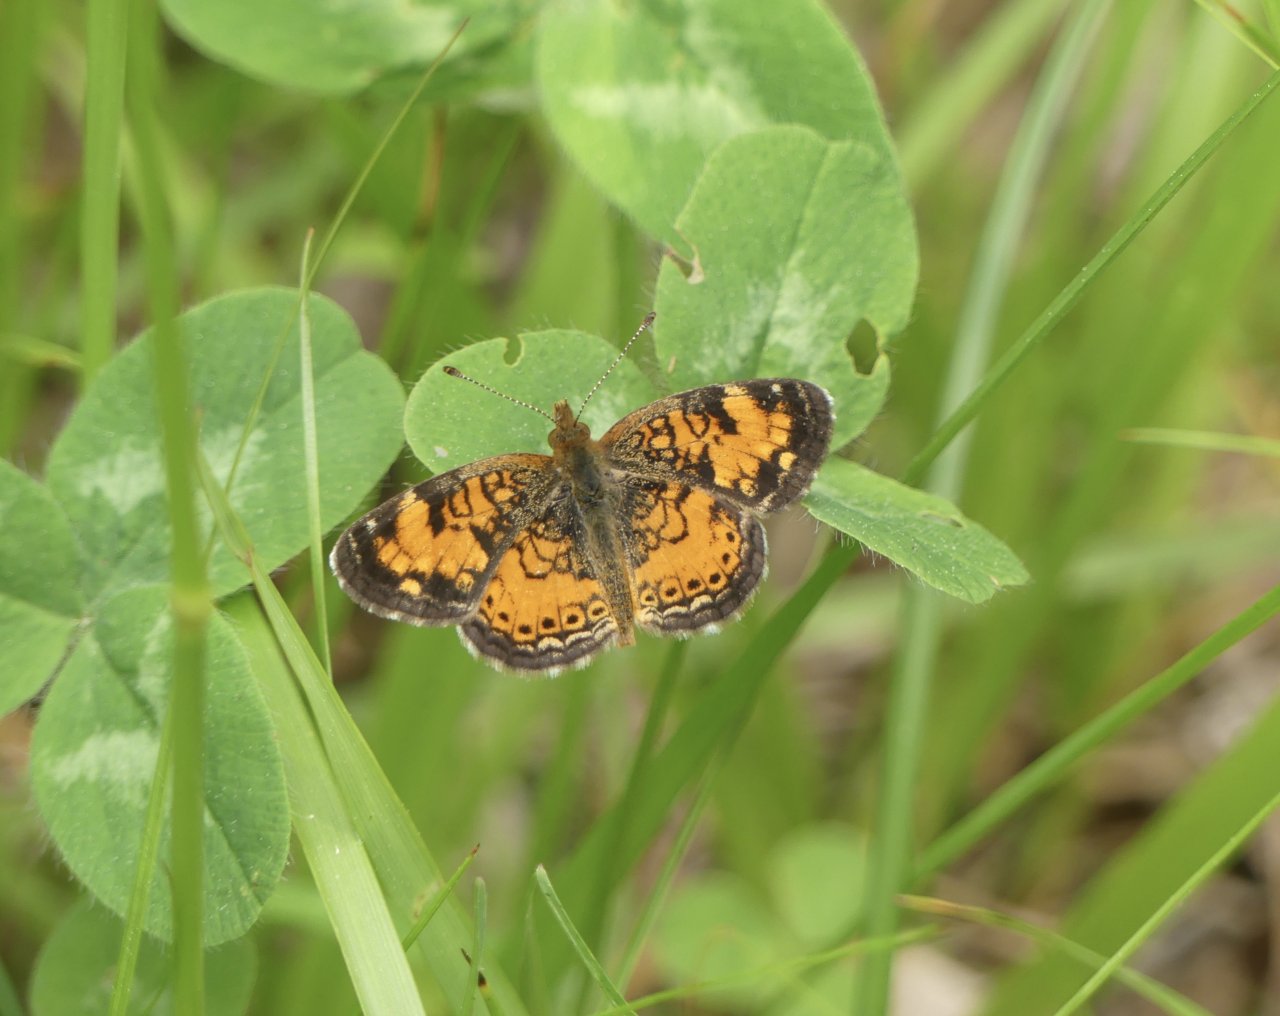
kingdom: Animalia
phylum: Arthropoda
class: Insecta
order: Lepidoptera
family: Nymphalidae
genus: Phyciodes
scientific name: Phyciodes tharos
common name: Pearl Crescent
